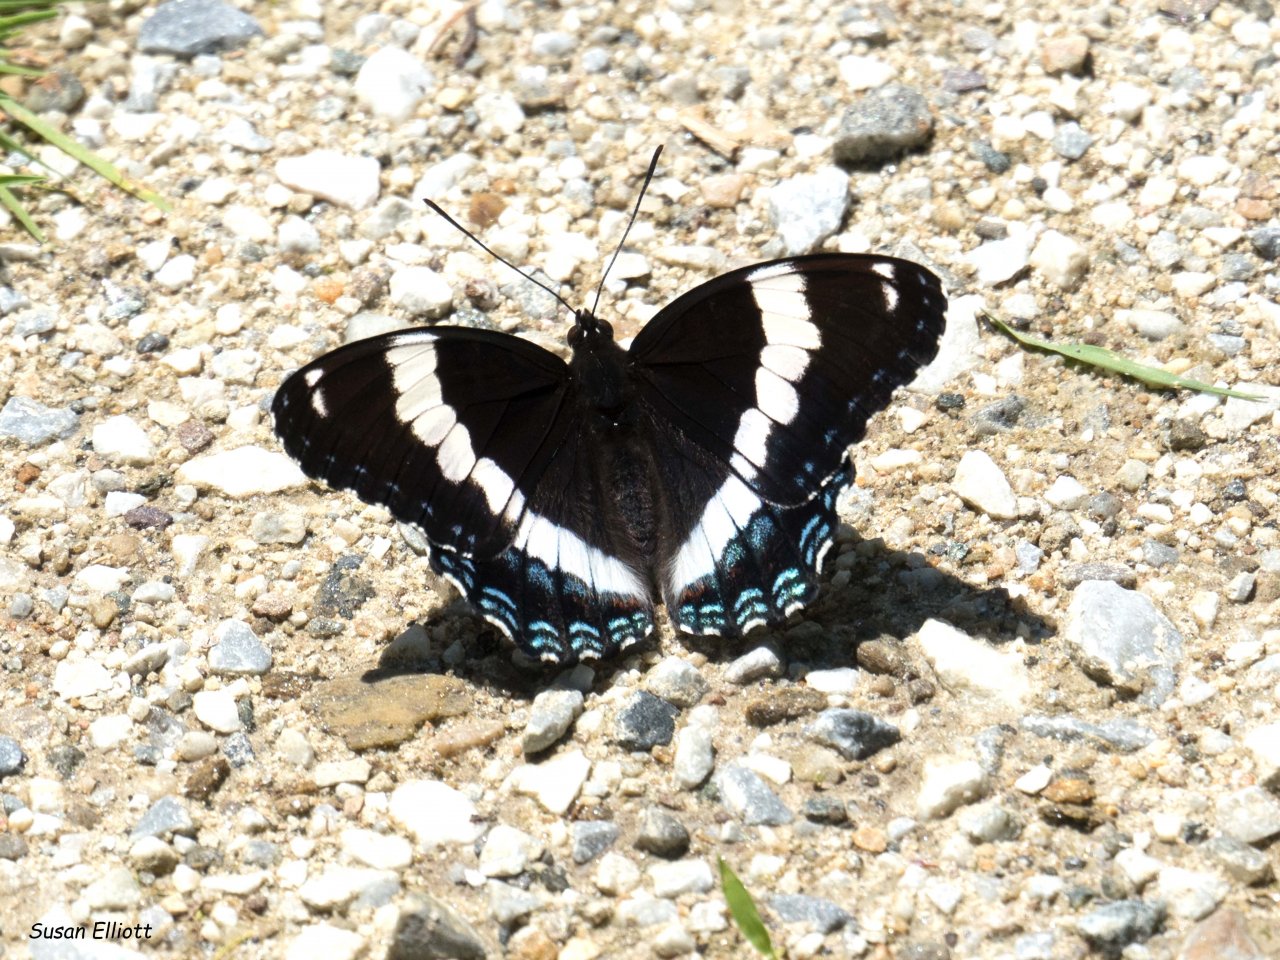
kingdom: Animalia
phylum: Arthropoda
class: Insecta
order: Lepidoptera
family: Nymphalidae
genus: Limenitis
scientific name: Limenitis arthemis
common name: Red-spotted Admiral
